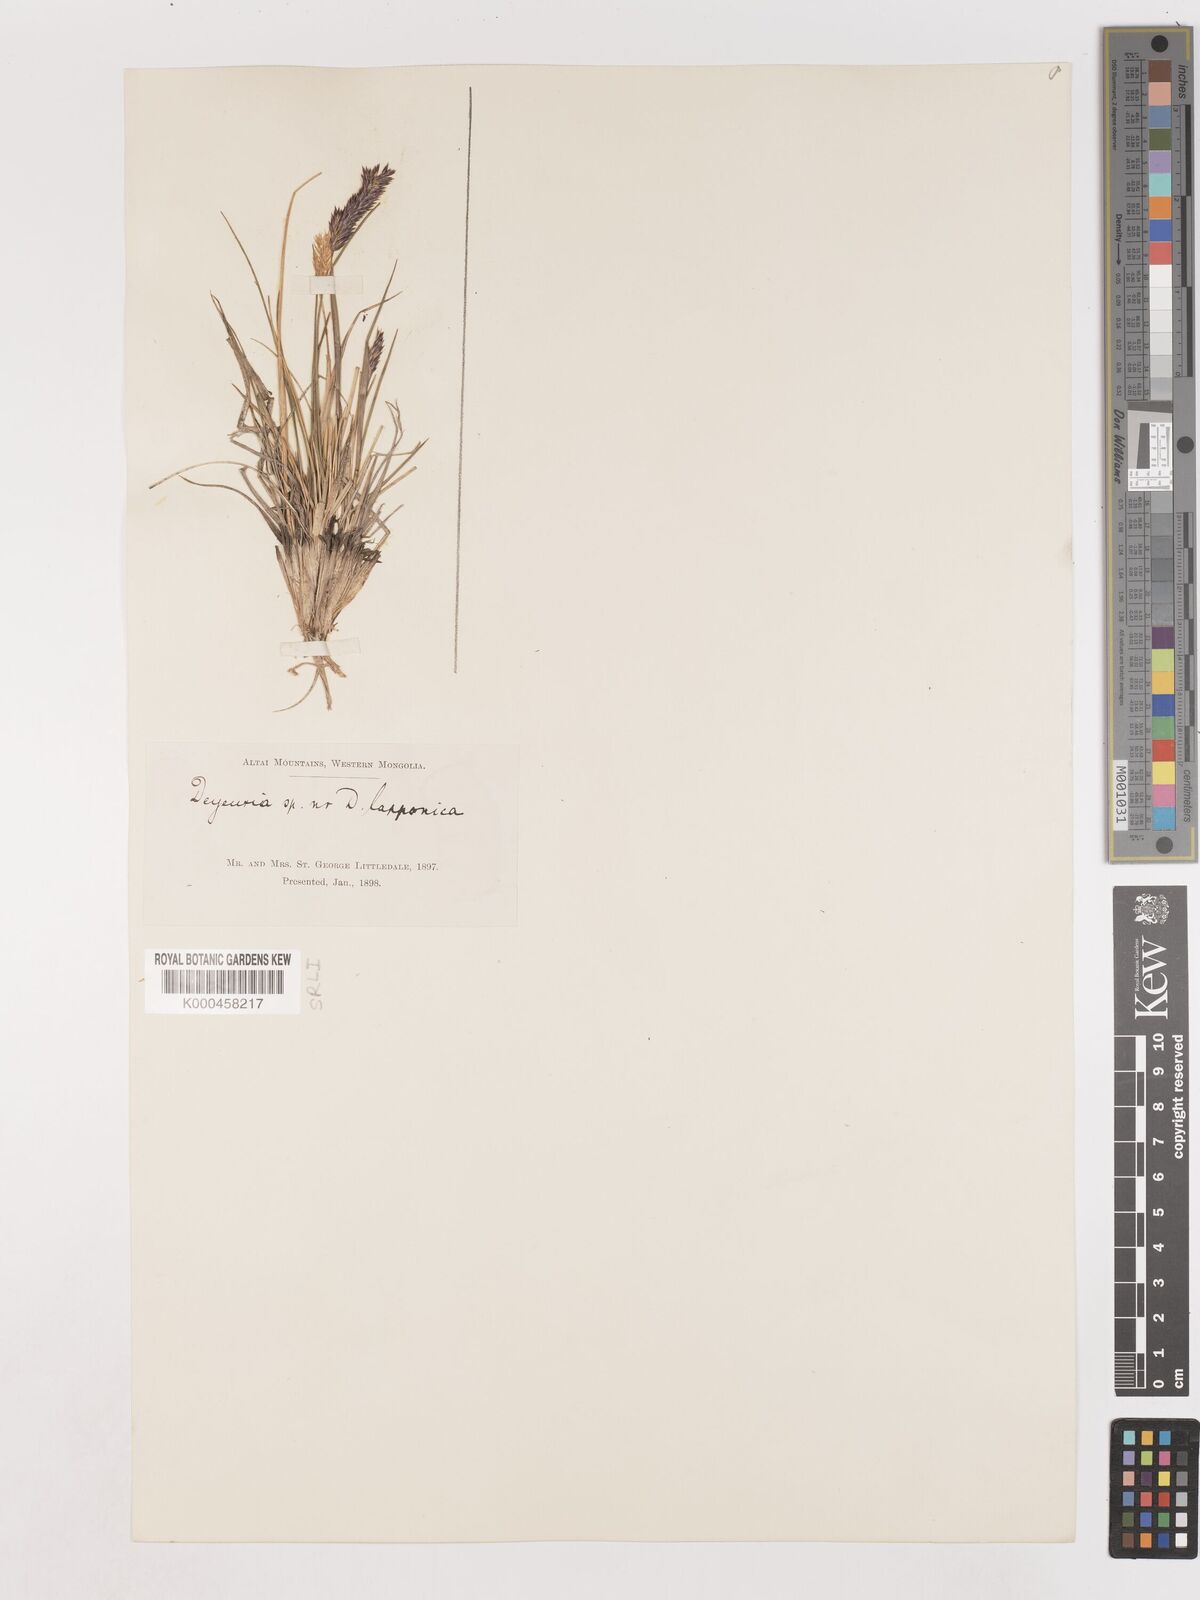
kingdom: Plantae
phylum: Tracheophyta
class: Liliopsida
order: Poales
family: Poaceae
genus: Calamagrostis
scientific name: Calamagrostis
